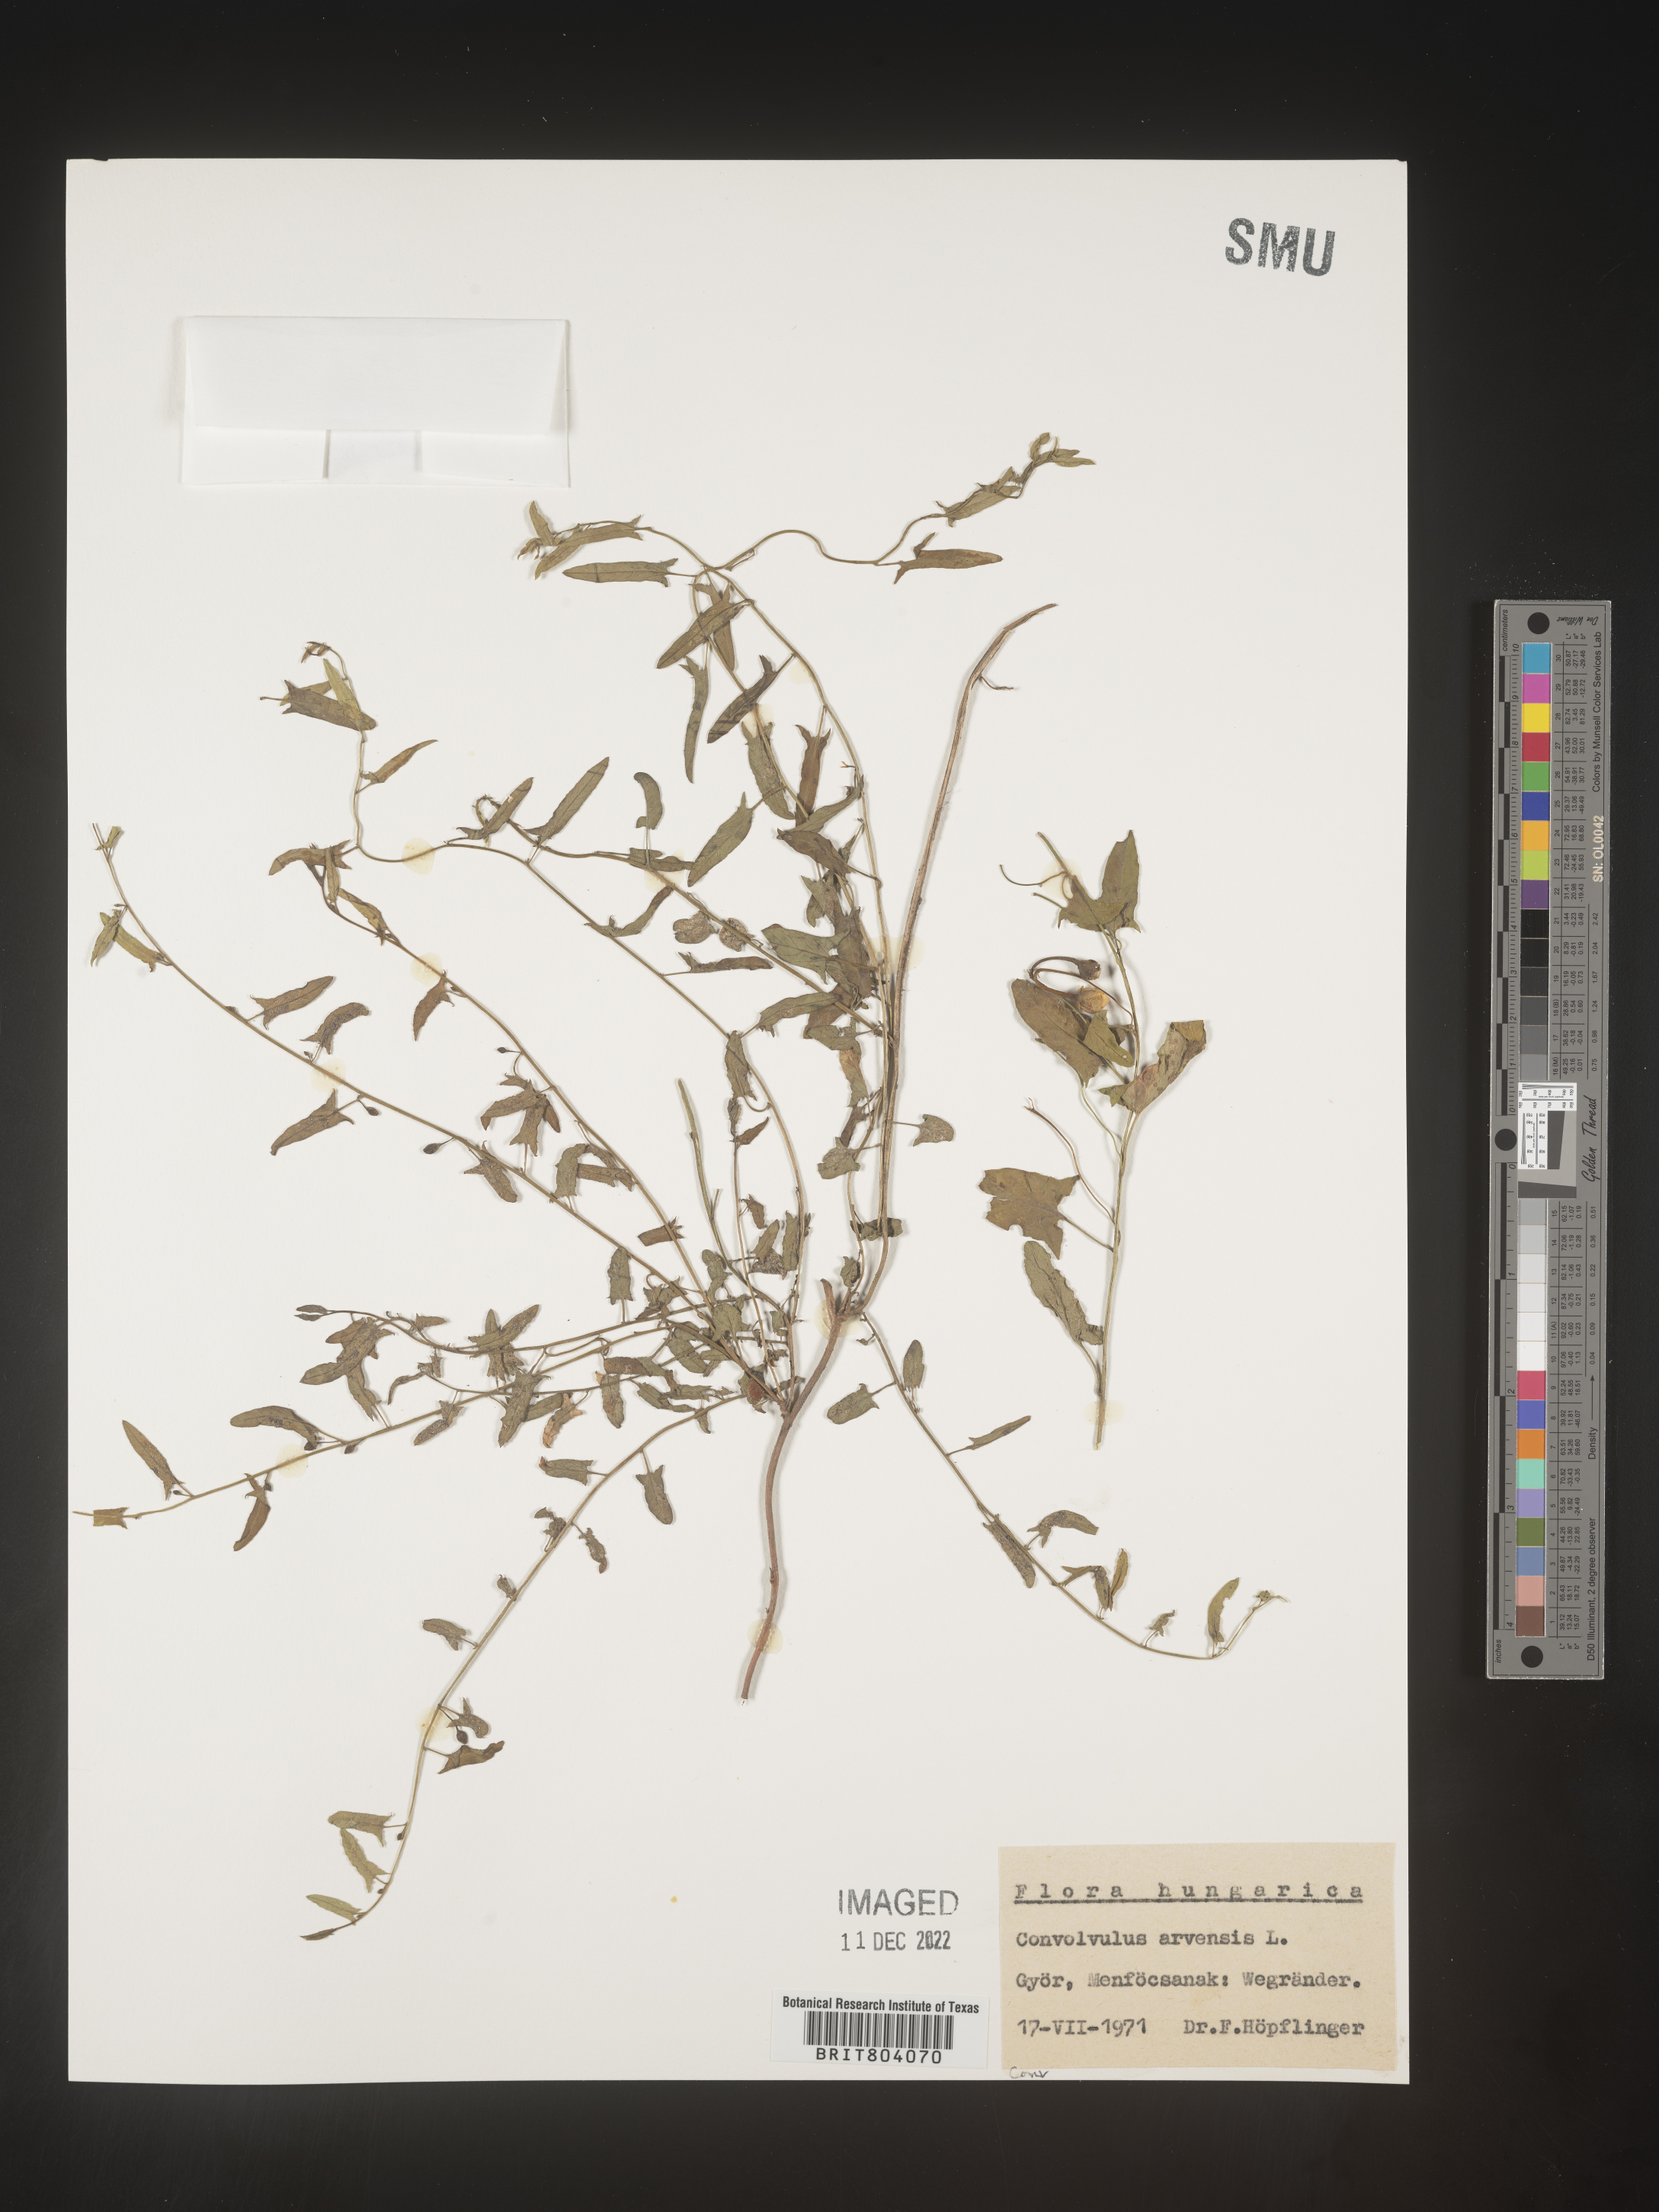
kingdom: Plantae
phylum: Tracheophyta
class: Magnoliopsida
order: Solanales
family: Convolvulaceae
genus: Convolvulus
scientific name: Convolvulus
